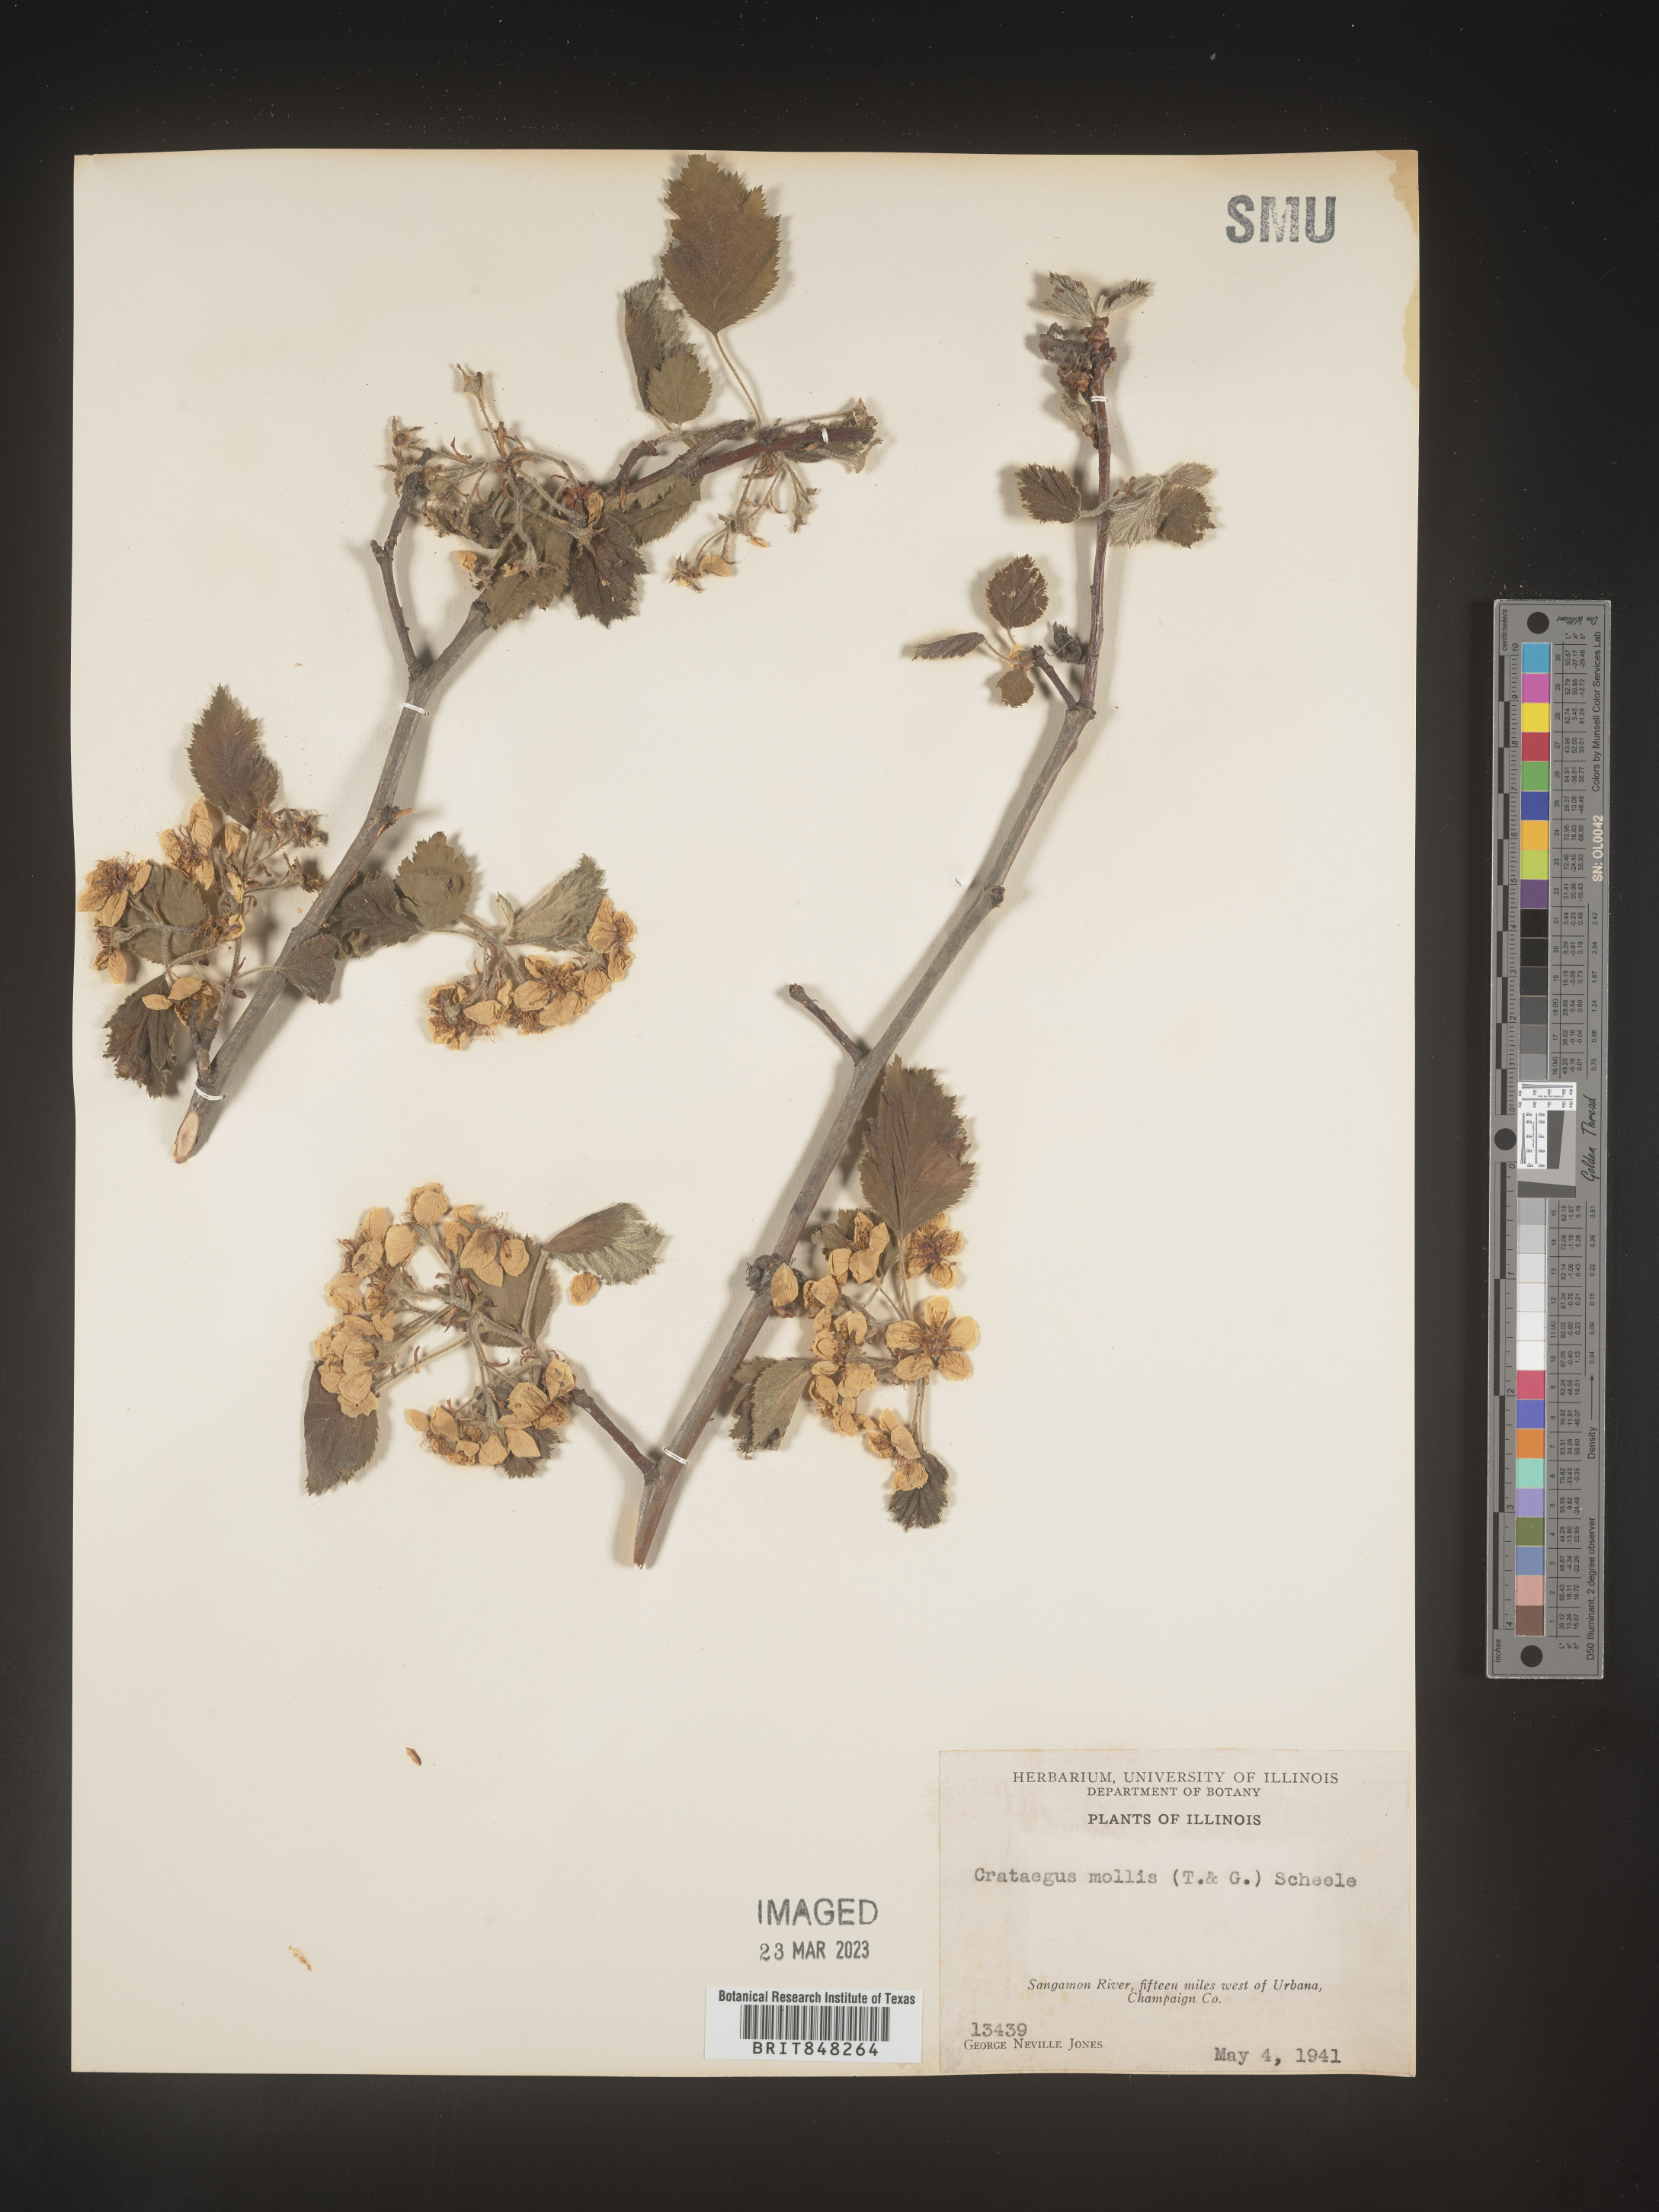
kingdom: Plantae
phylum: Tracheophyta
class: Magnoliopsida
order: Rosales
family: Rosaceae
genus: Crataegus
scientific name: Crataegus mollis
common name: Downy hawthorn
